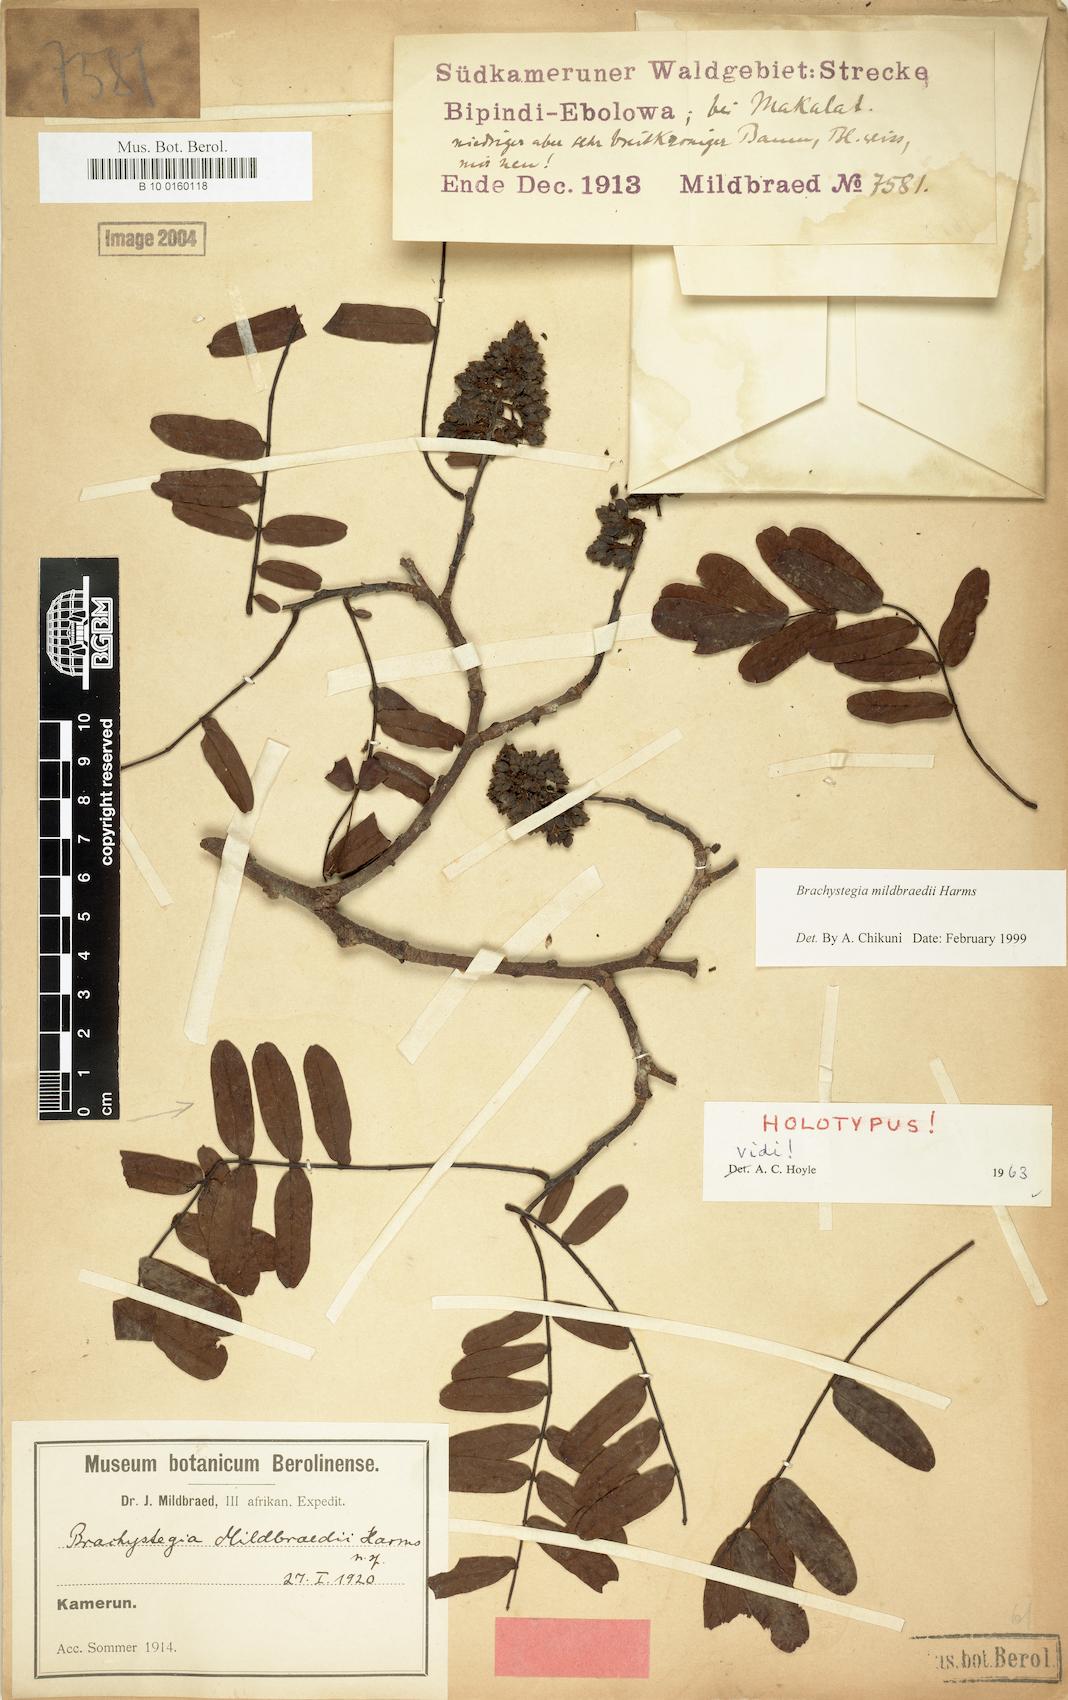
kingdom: Plantae
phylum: Tracheophyta
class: Magnoliopsida
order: Fabales
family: Fabaceae
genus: Brachystegia
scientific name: Brachystegia mildbraedii
